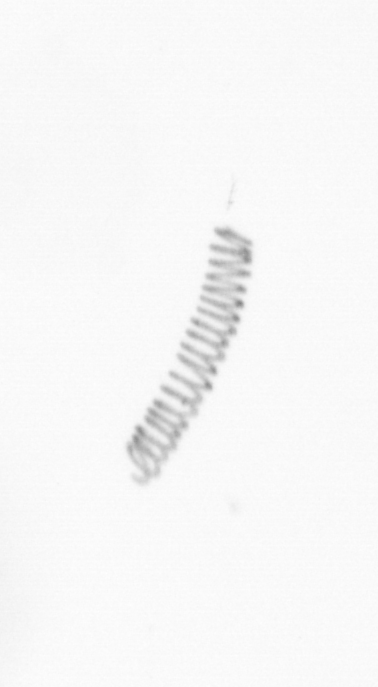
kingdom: Chromista
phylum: Ochrophyta
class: Bacillariophyceae
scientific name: Bacillariophyceae
